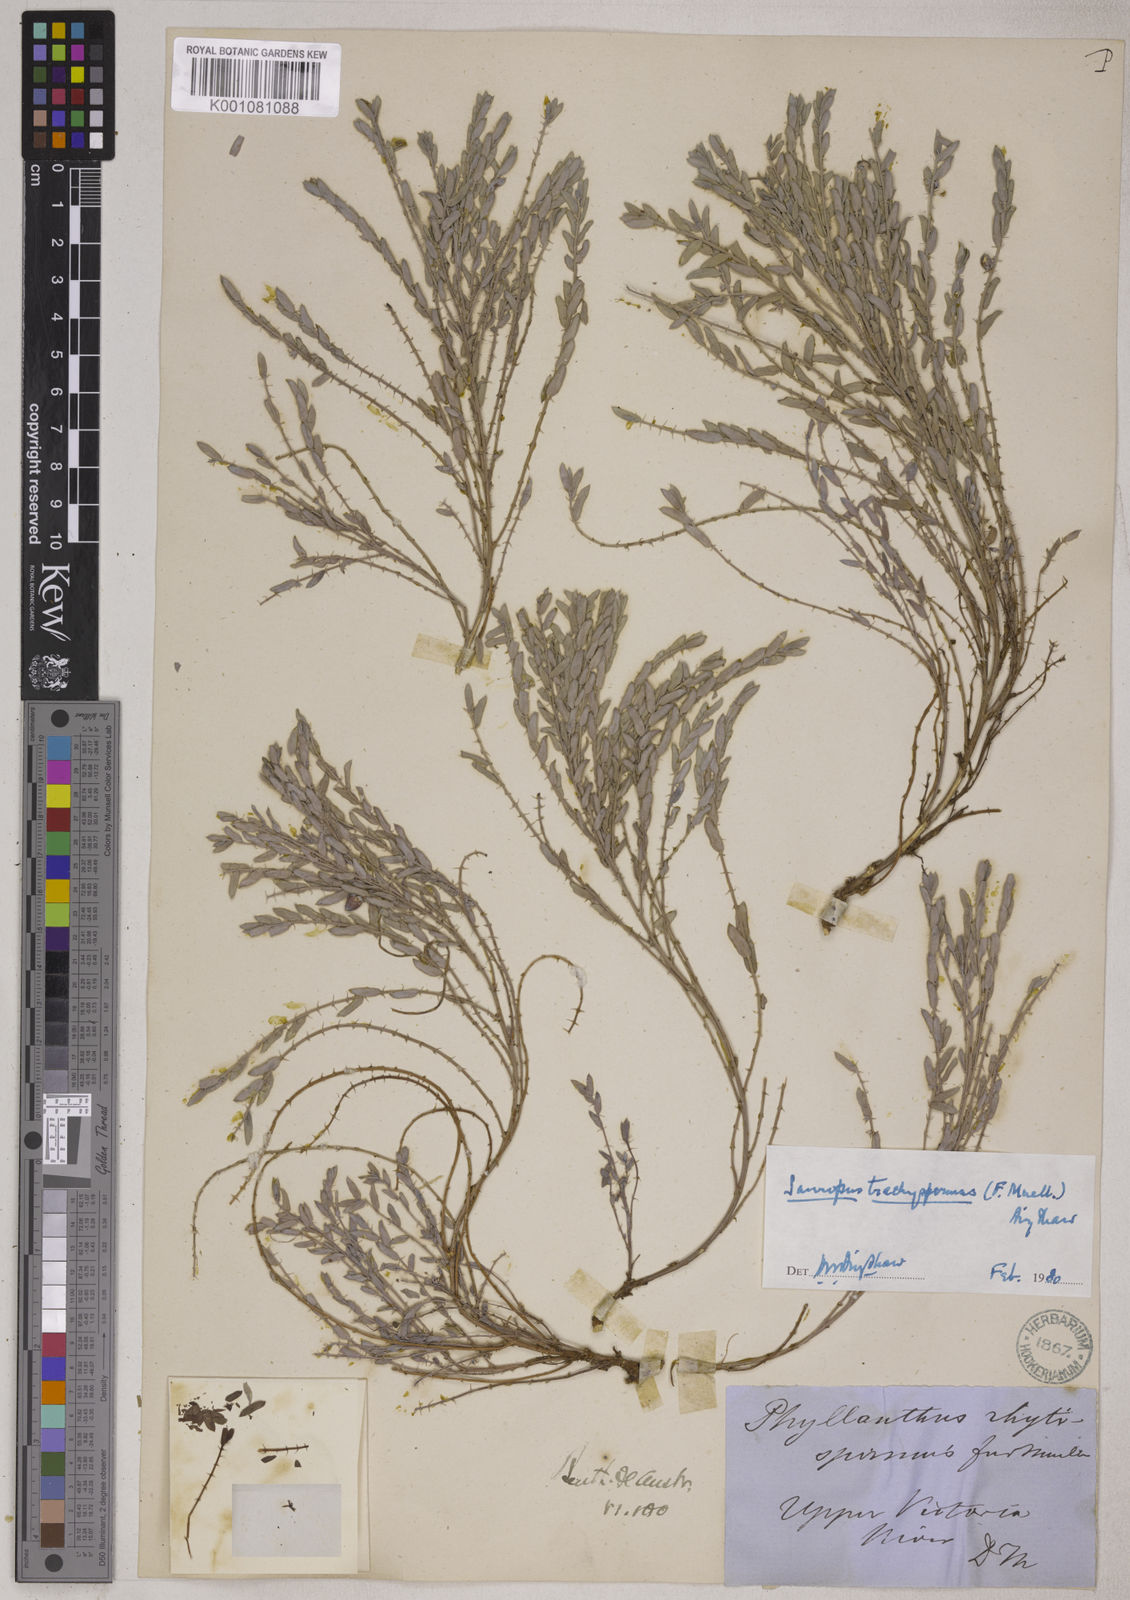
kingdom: Plantae
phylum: Tracheophyta
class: Magnoliopsida
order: Malpighiales
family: Phyllanthaceae
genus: Synostemon
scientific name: Synostemon trachyspermus
